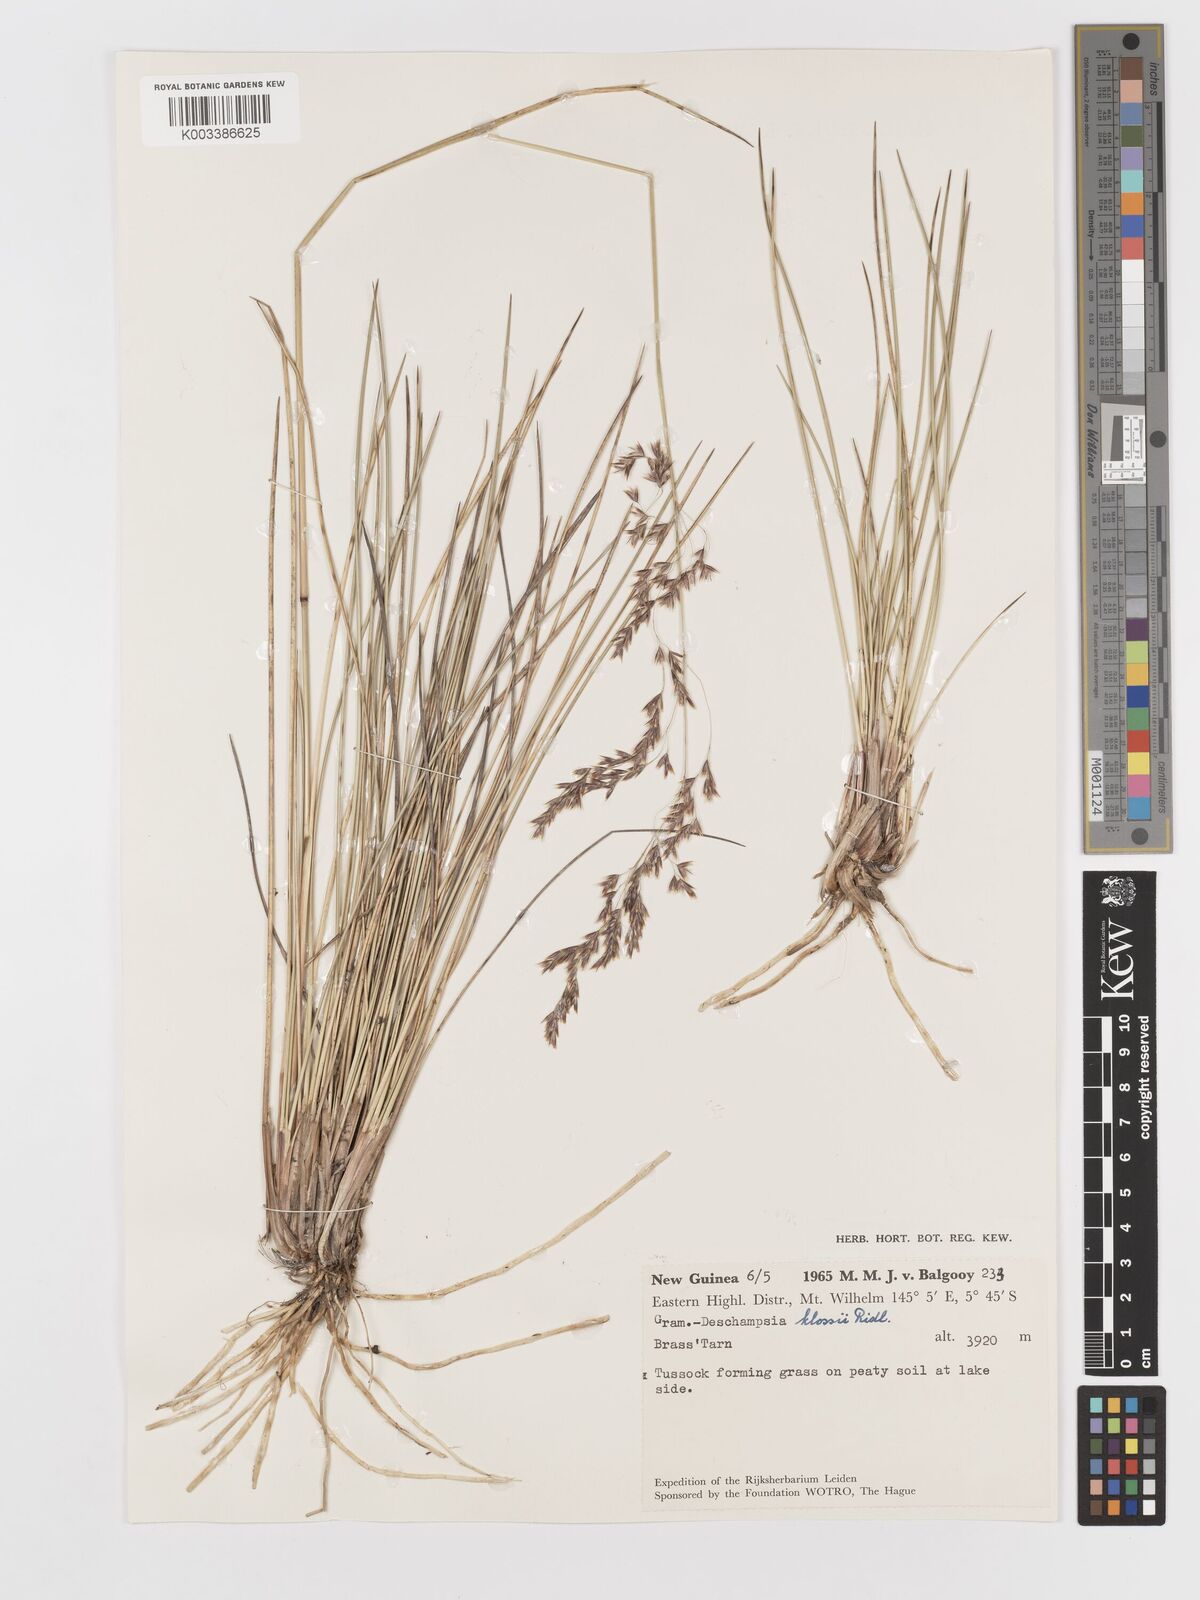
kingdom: Plantae
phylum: Tracheophyta
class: Liliopsida
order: Poales
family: Poaceae
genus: Deschampsia
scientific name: Deschampsia klossii
